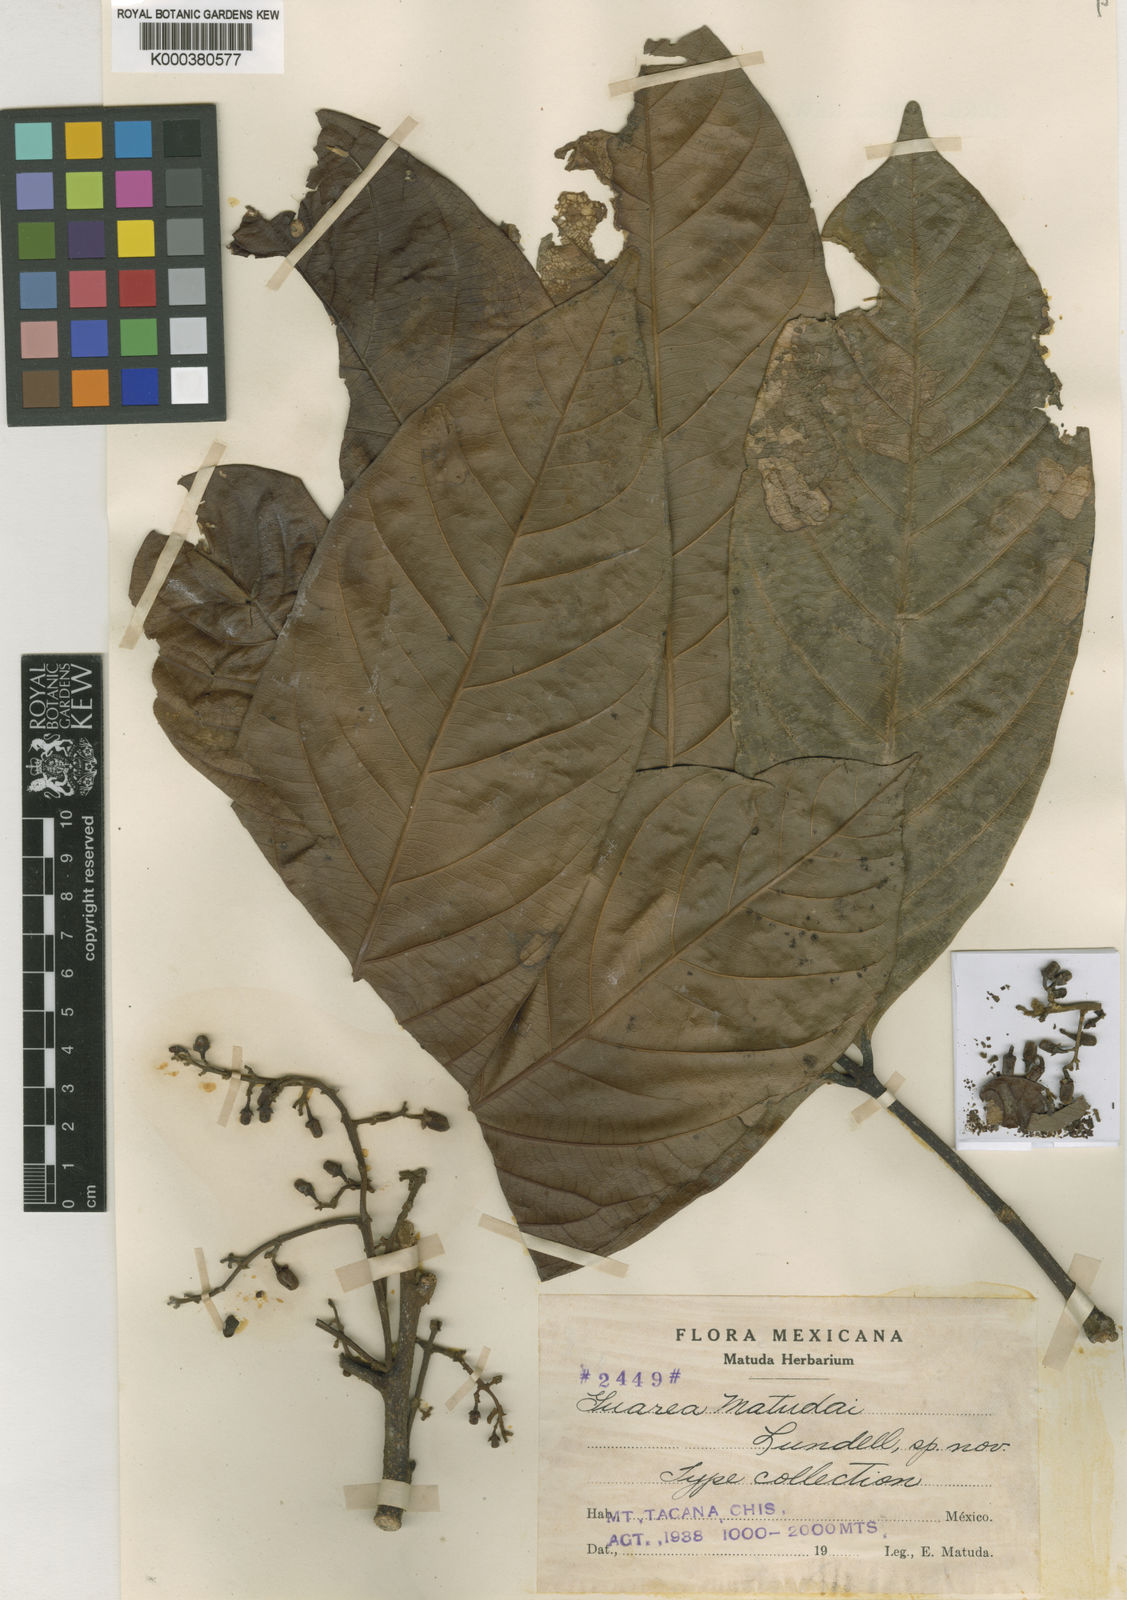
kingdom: Plantae
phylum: Tracheophyta
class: Magnoliopsida
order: Sapindales
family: Meliaceae
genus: Guarea
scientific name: Guarea glabra
